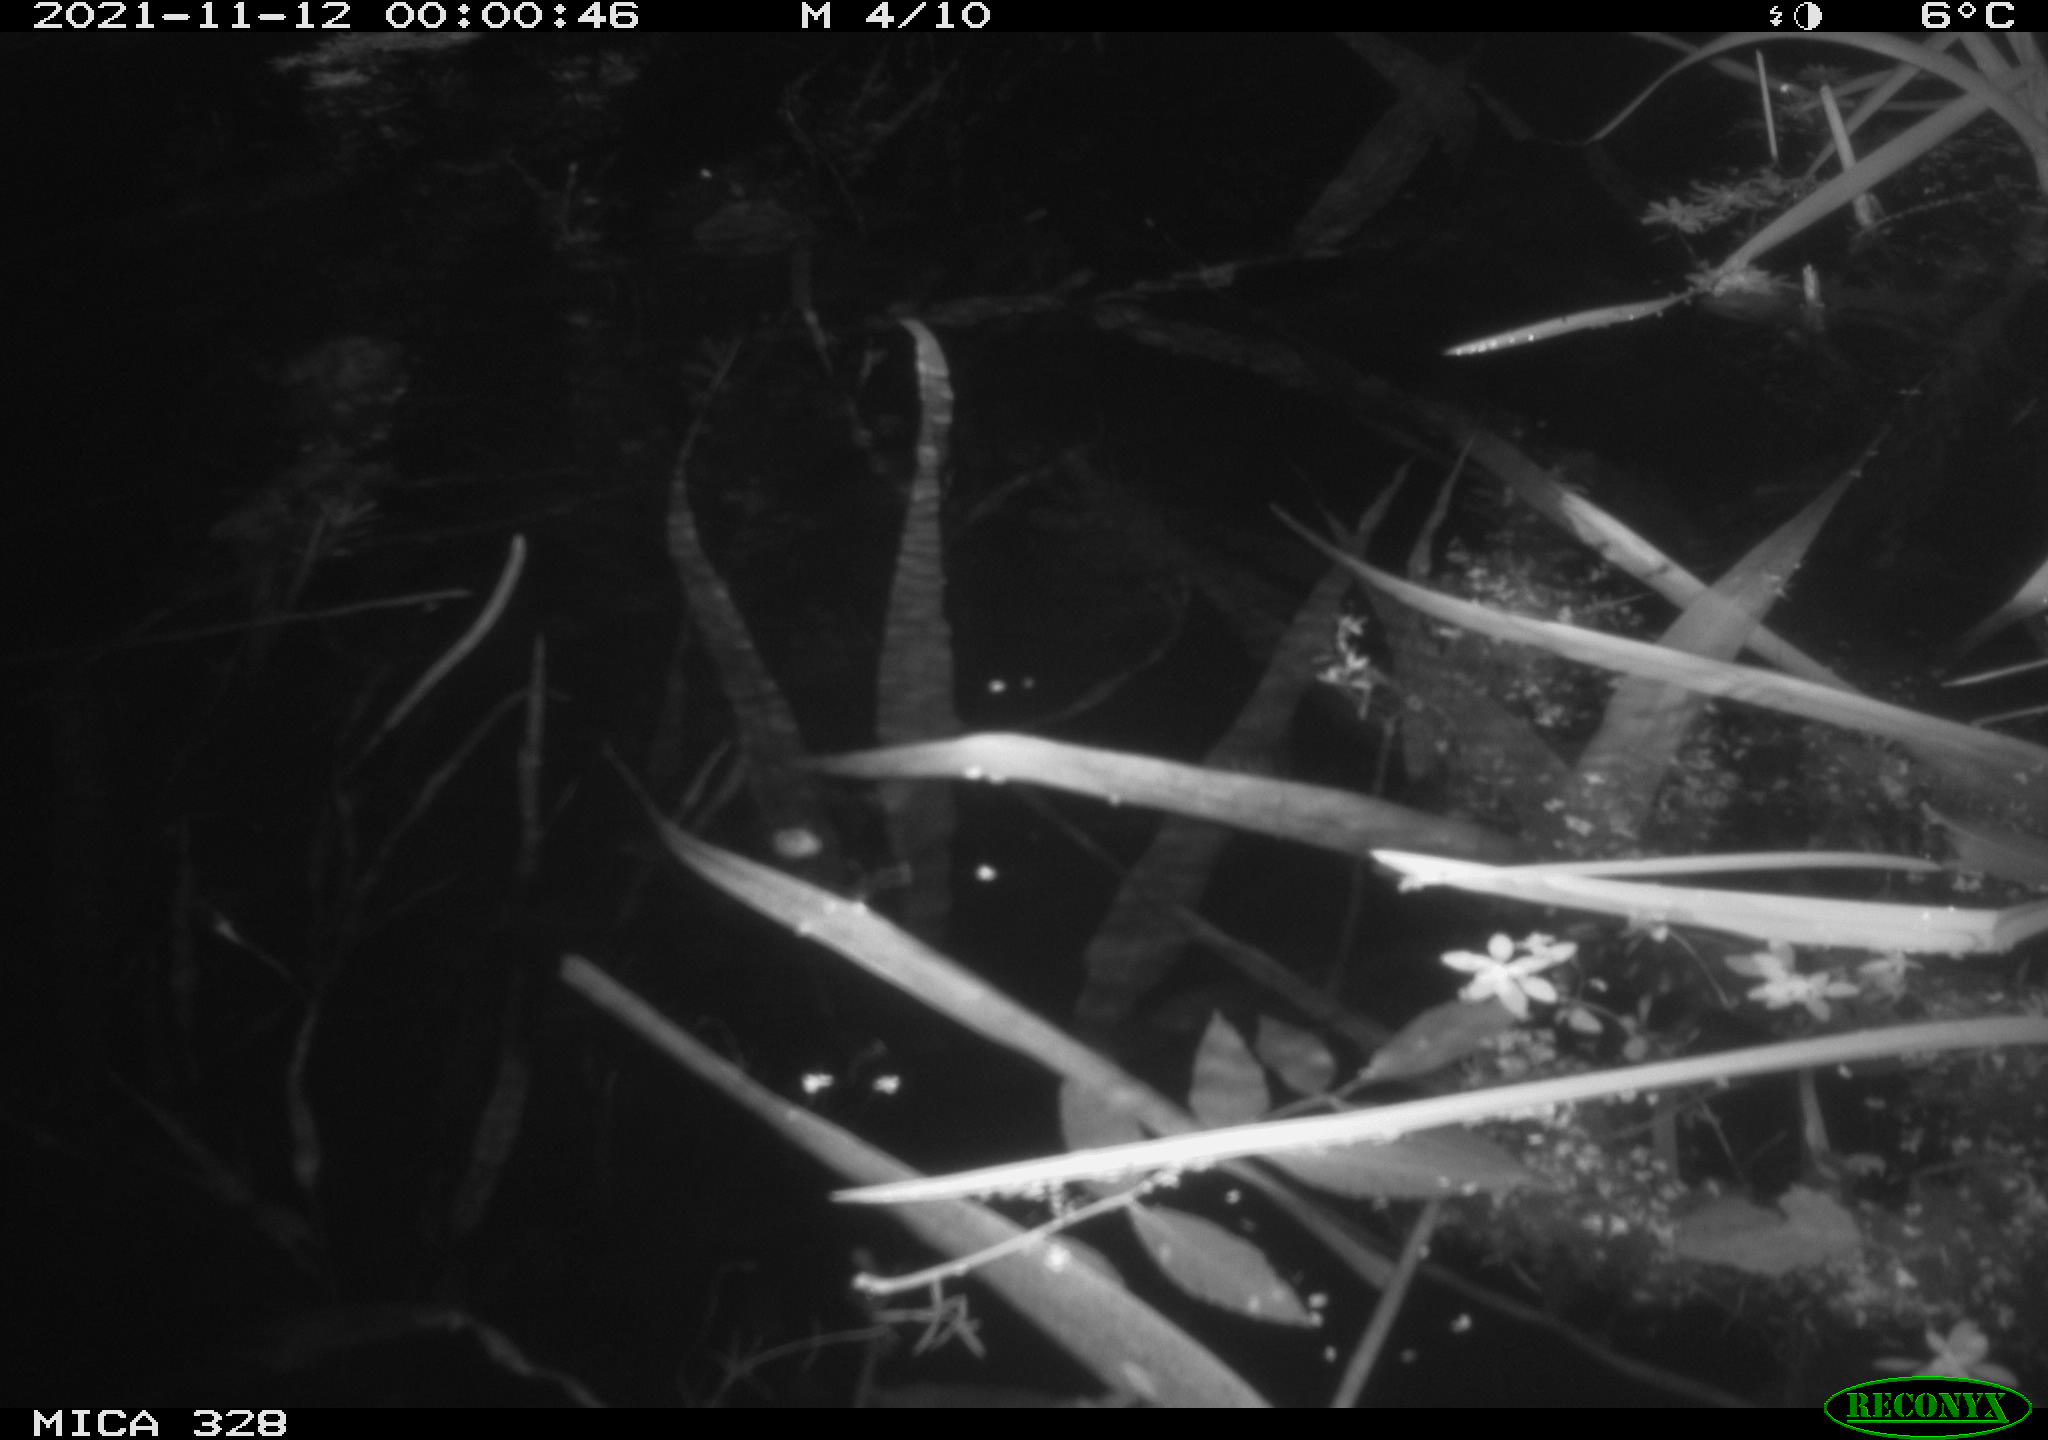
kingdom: Animalia
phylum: Chordata
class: Mammalia
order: Rodentia
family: Cricetidae
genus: Ondatra
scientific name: Ondatra zibethicus
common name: Muskrat
